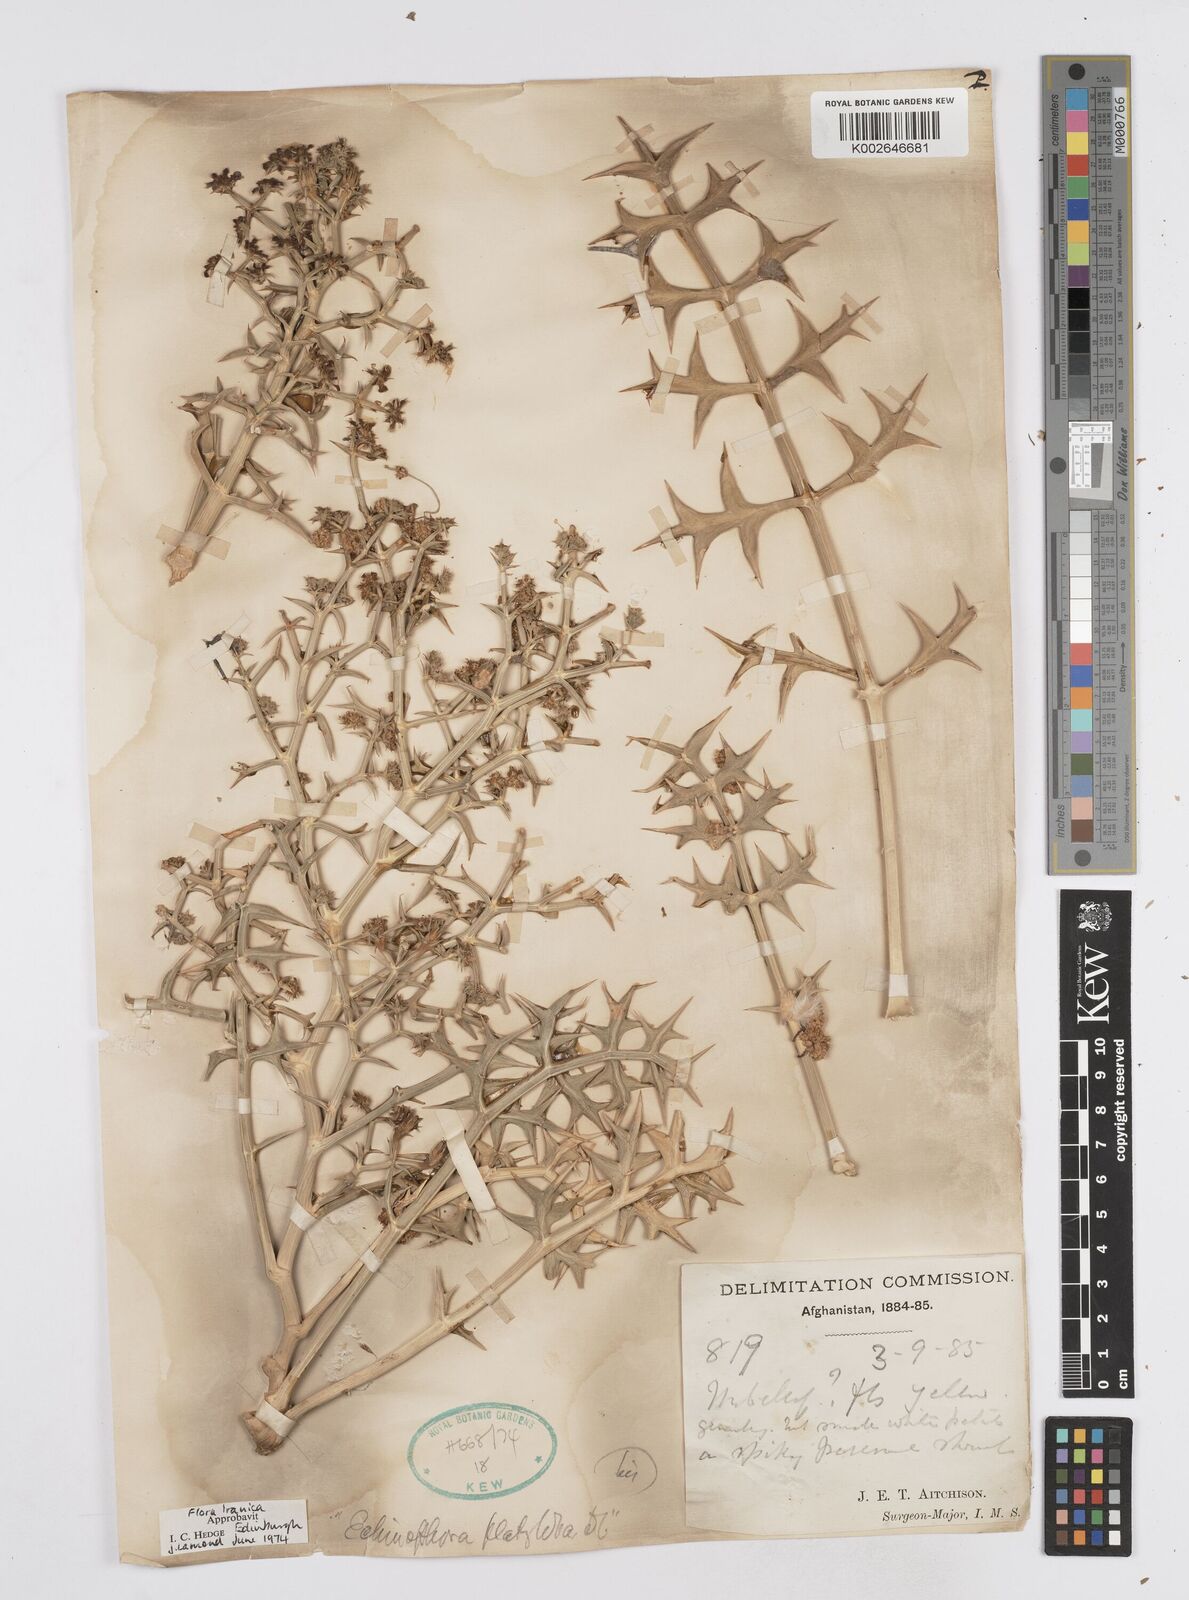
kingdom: Plantae
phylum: Tracheophyta
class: Magnoliopsida
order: Apiales
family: Apiaceae
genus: Echinophora
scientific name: Echinophora platyloba
